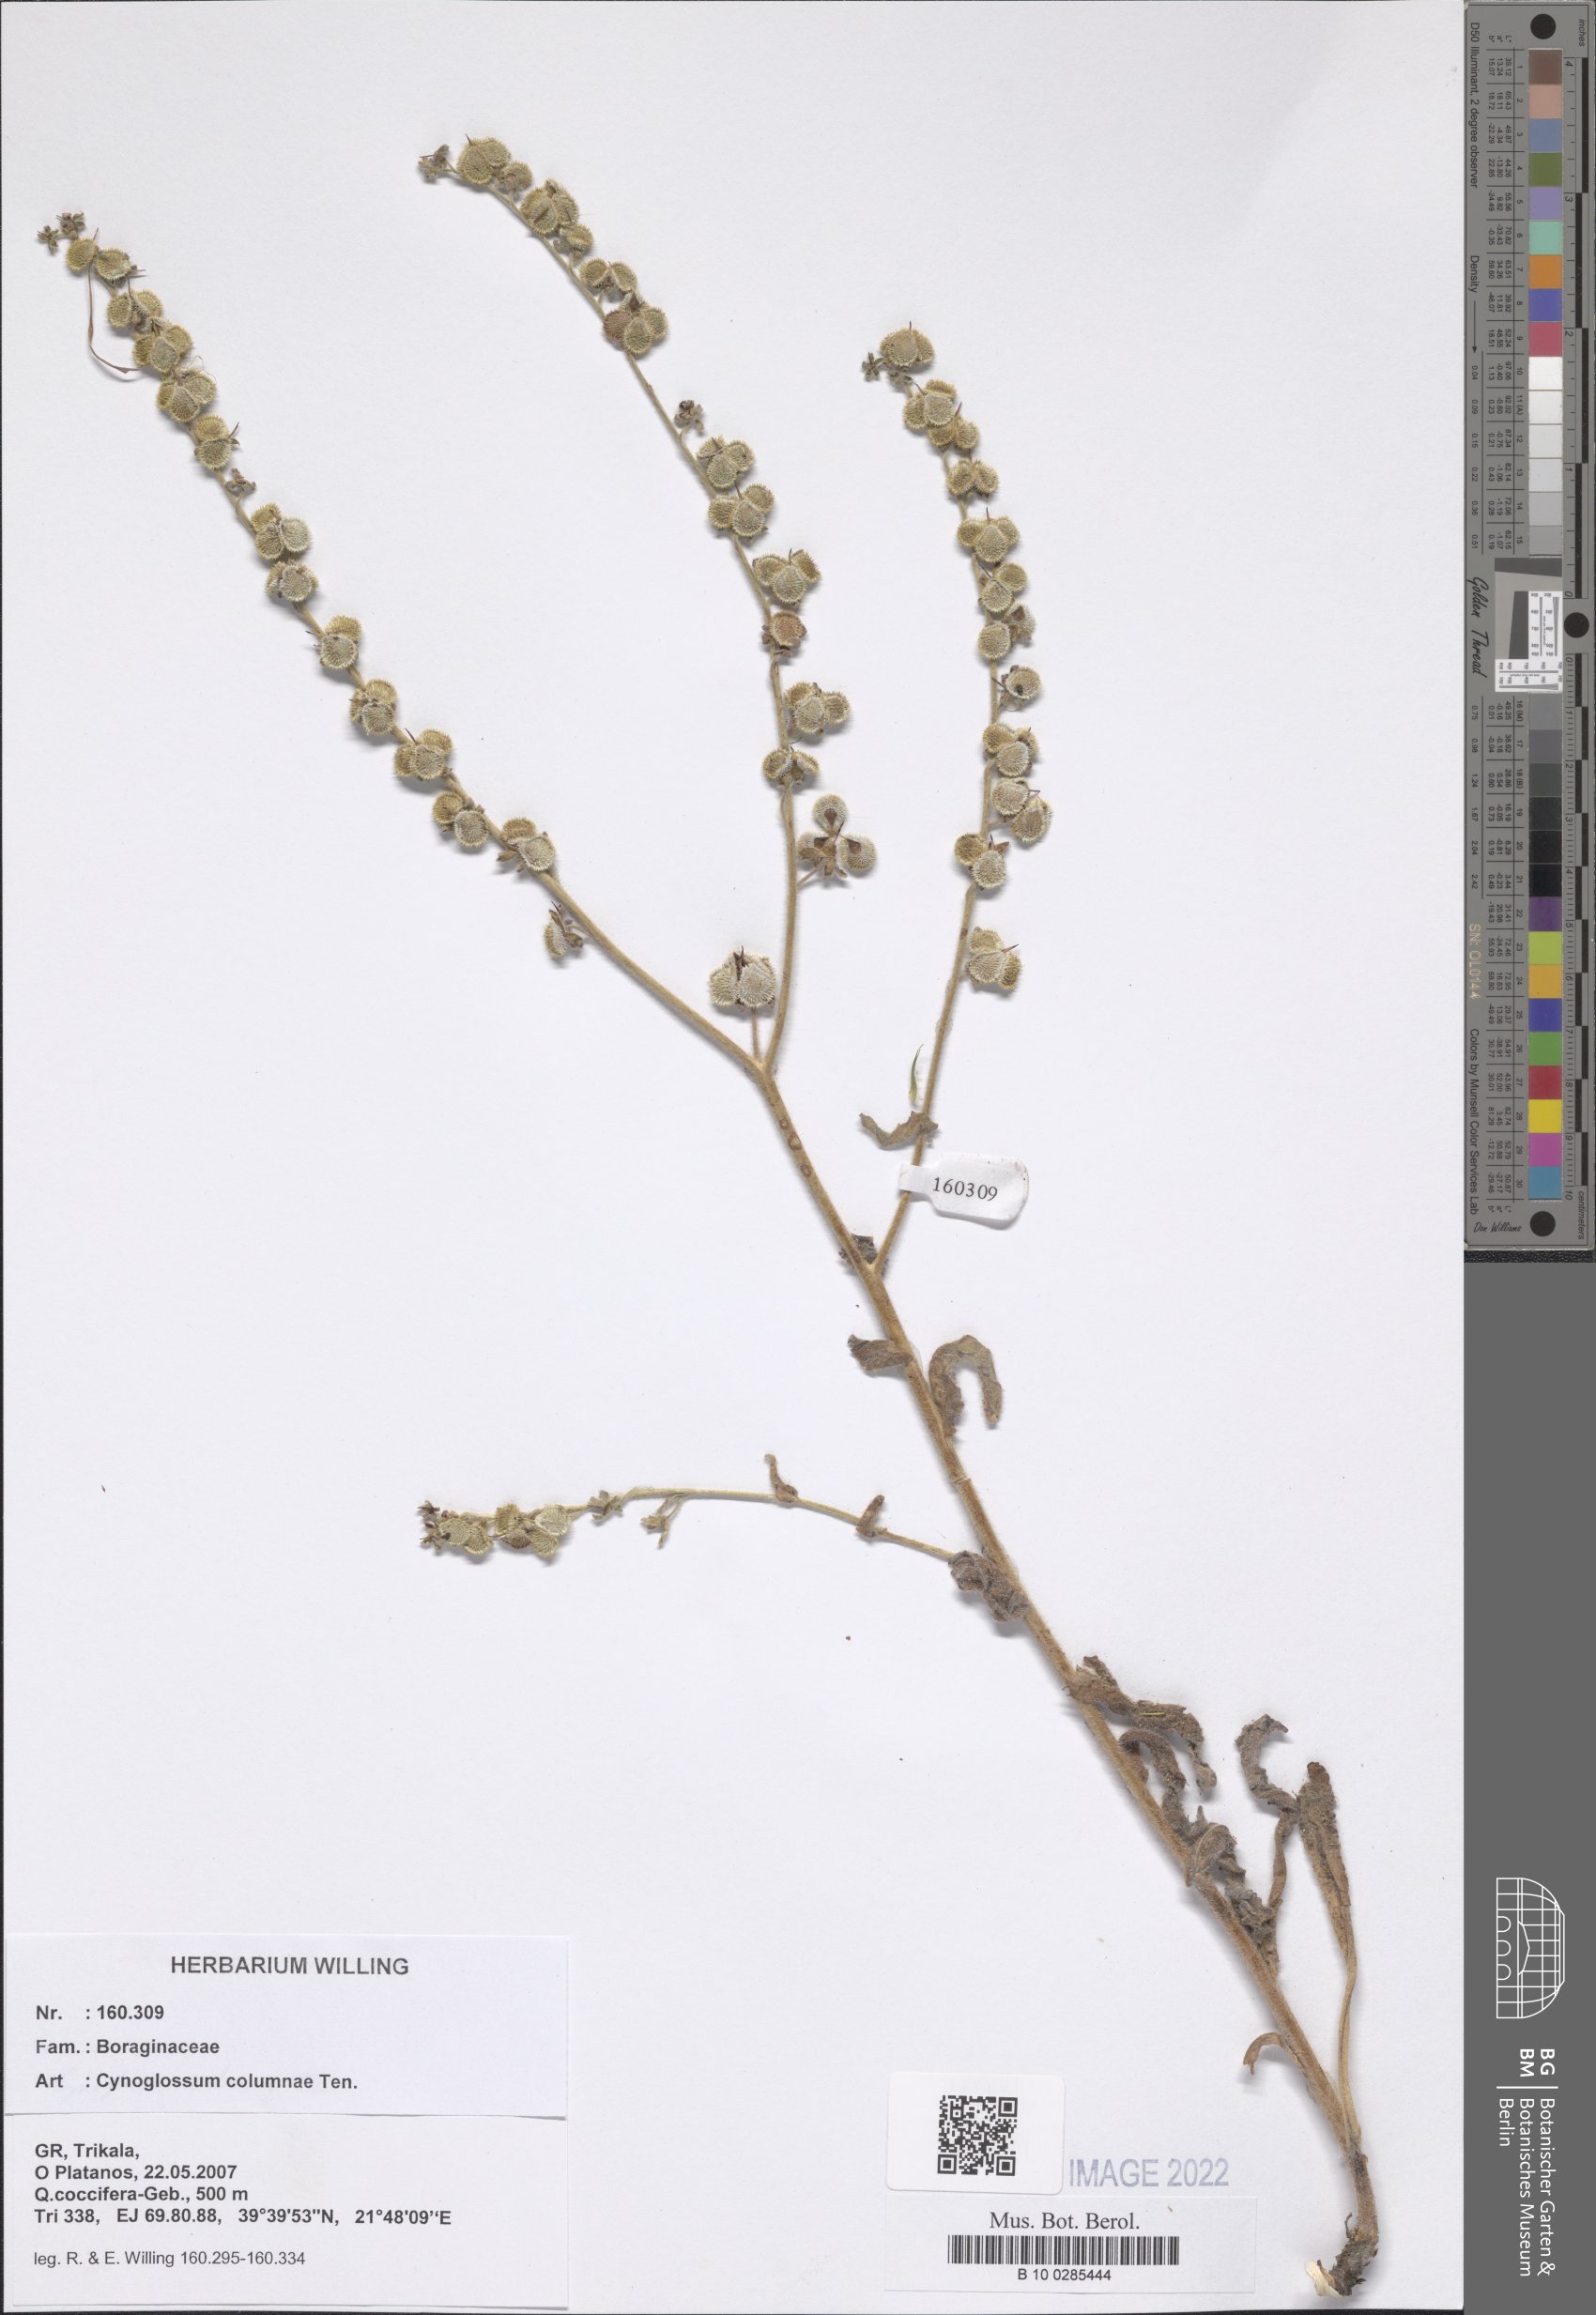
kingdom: Plantae
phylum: Tracheophyta
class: Magnoliopsida
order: Boraginales
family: Boraginaceae
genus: Rindera
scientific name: Rindera columnae
